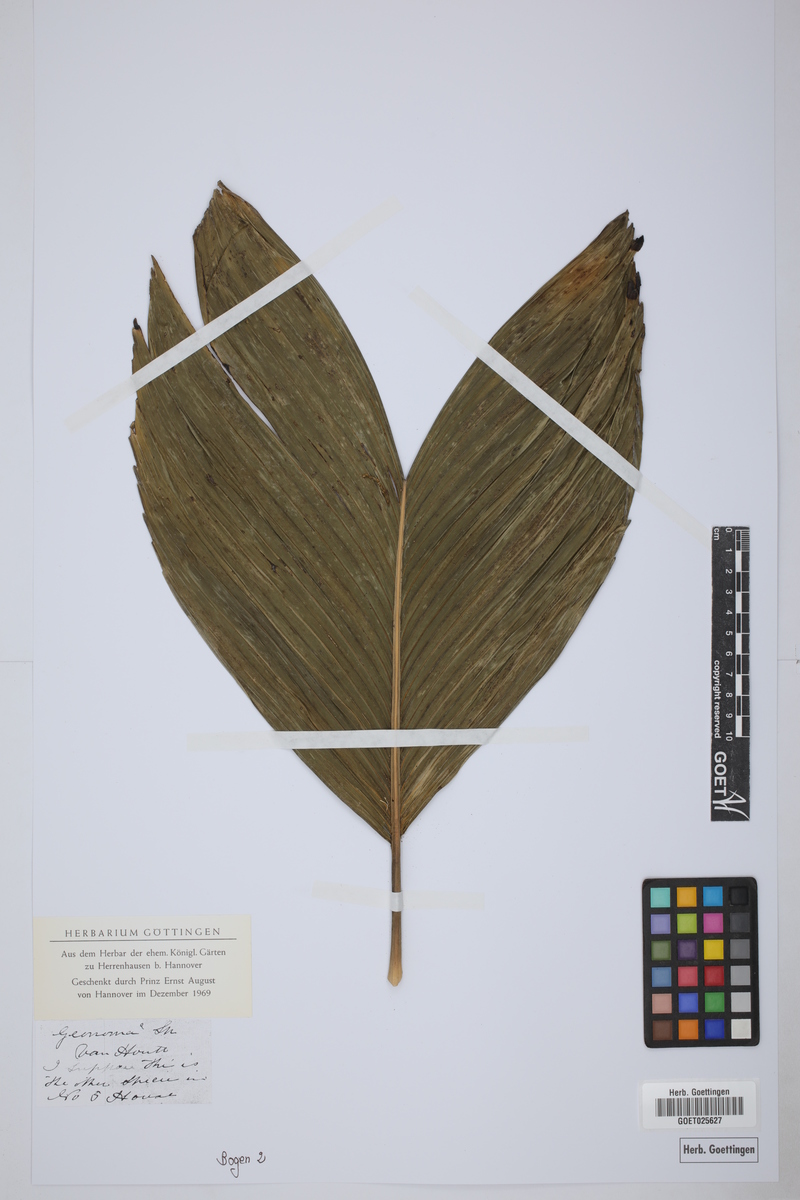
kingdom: Plantae
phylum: Tracheophyta
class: Liliopsida
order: Arecales
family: Arecaceae
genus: Geonoma
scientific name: Geonoma
